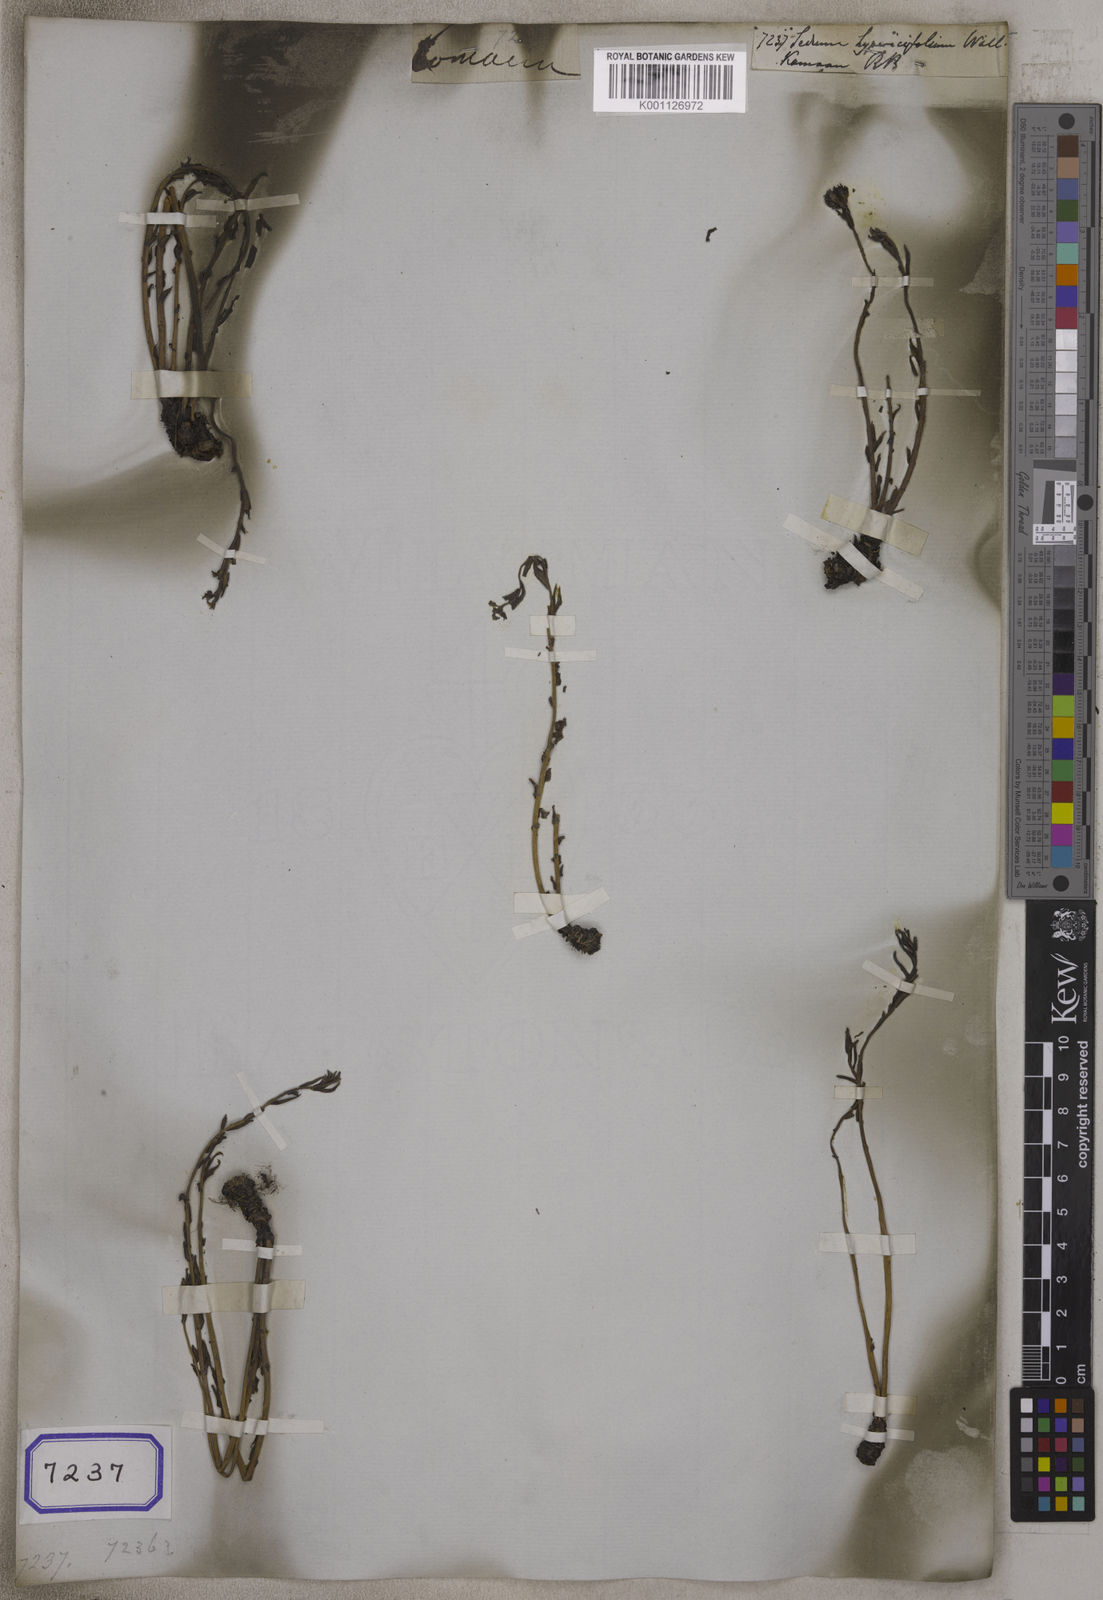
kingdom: Plantae
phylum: Tracheophyta
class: Magnoliopsida
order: Saxifragales
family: Crassulaceae
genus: Rhodiola
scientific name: Rhodiola himalensis
